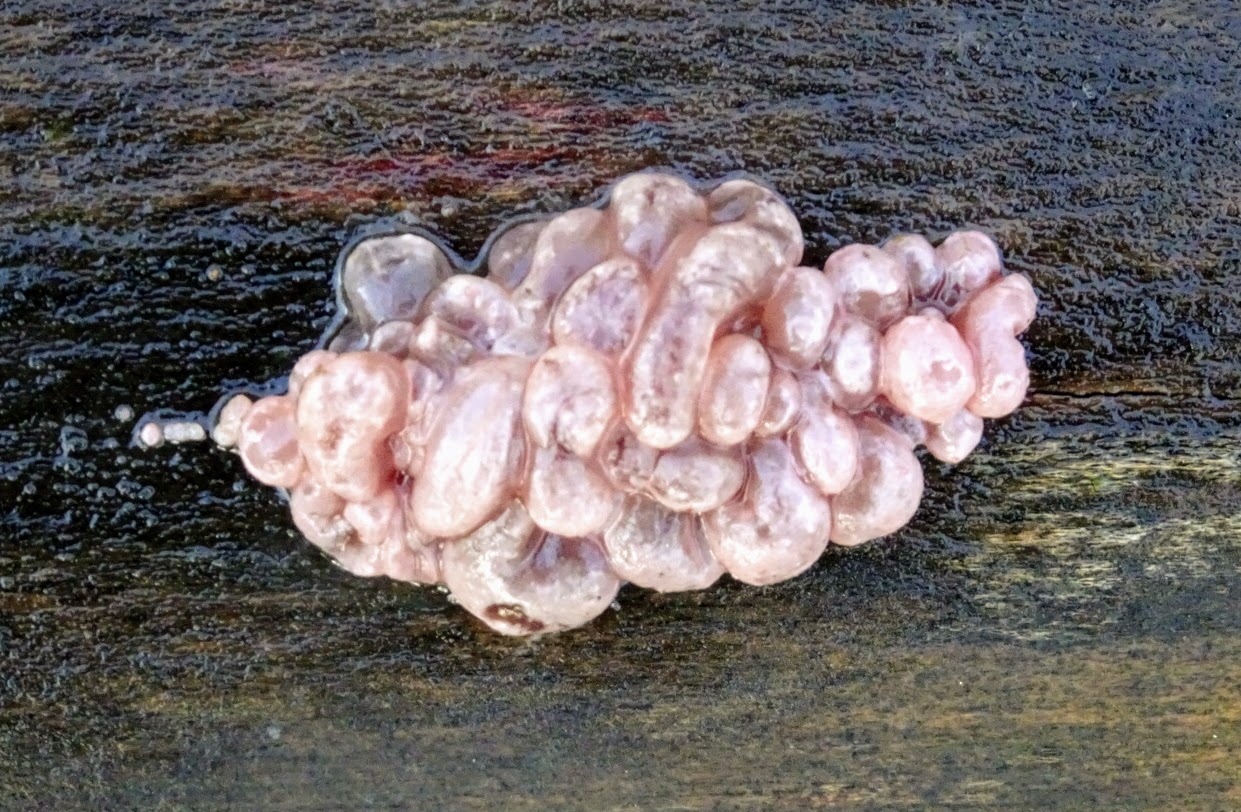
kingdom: Fungi
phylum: Ascomycota
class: Leotiomycetes
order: Helotiales
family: Gelatinodiscaceae
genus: Ascocoryne
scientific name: Ascocoryne sarcoides
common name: rødlilla sejskive
